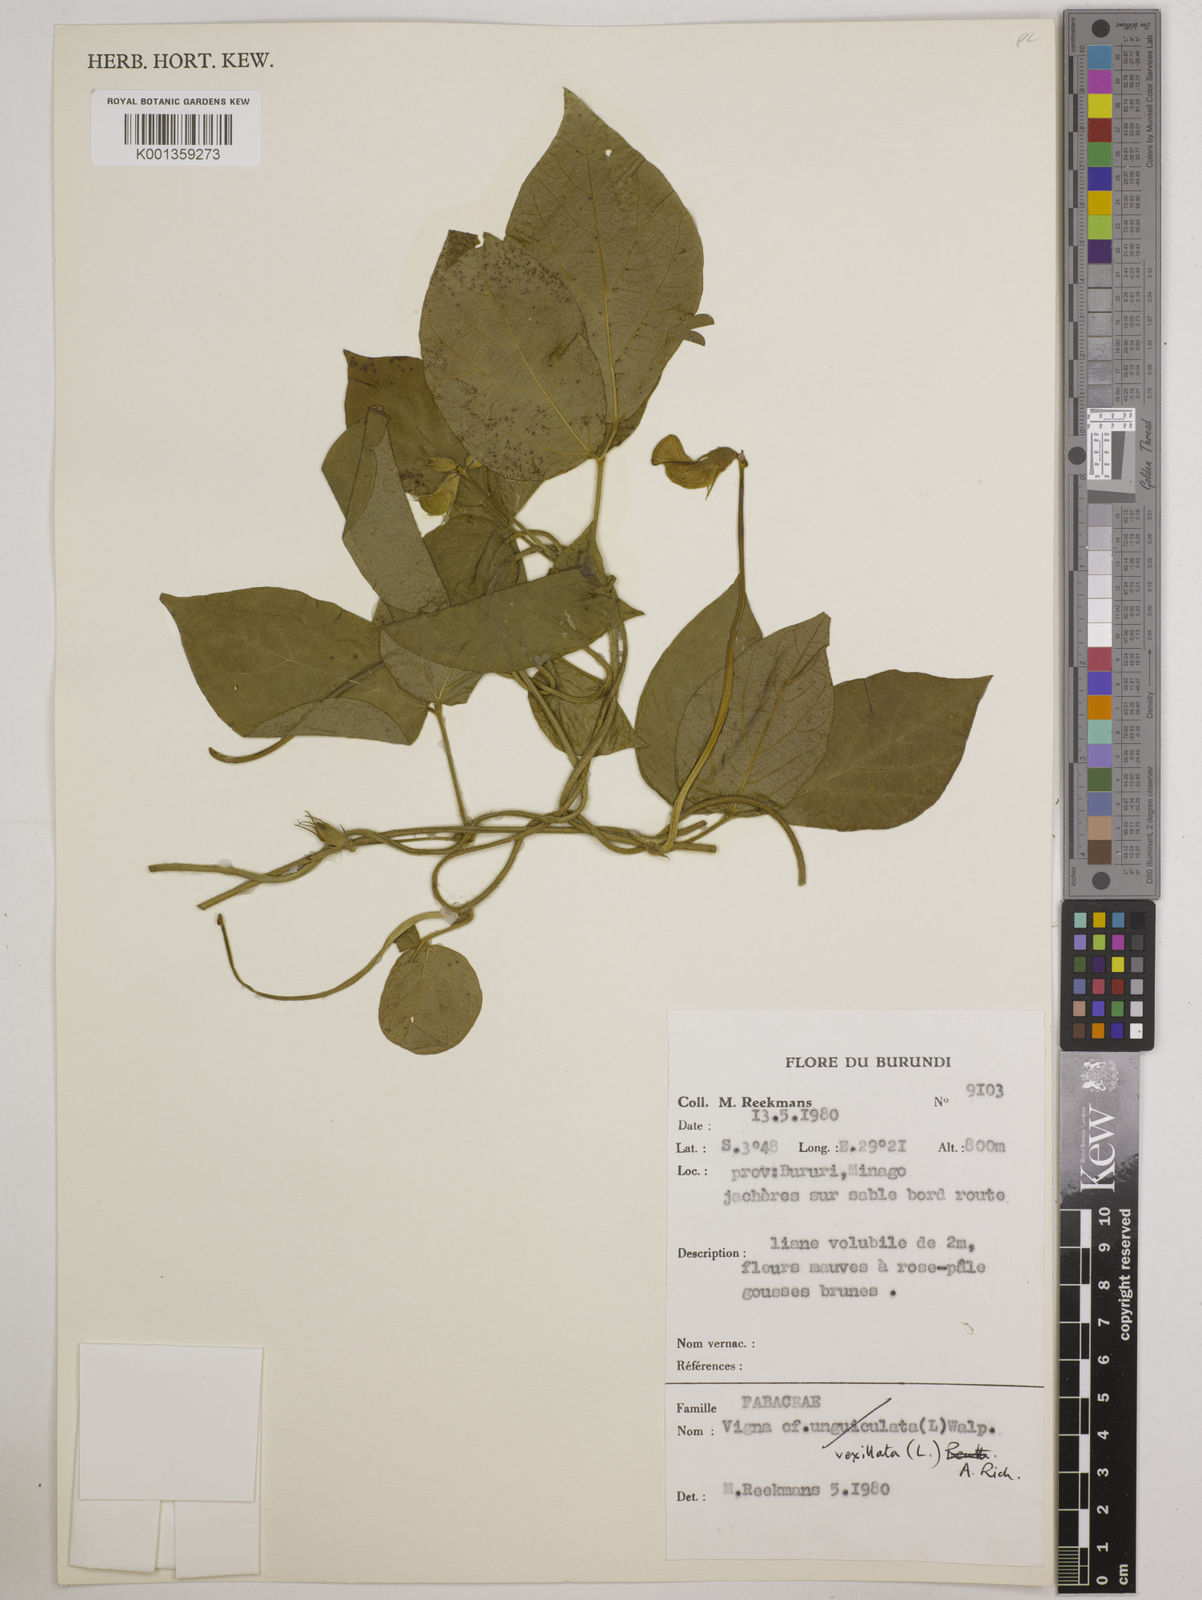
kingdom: Plantae
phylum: Tracheophyta
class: Magnoliopsida
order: Fabales
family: Fabaceae
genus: Vigna
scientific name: Vigna vexillata
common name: Zombi pea
